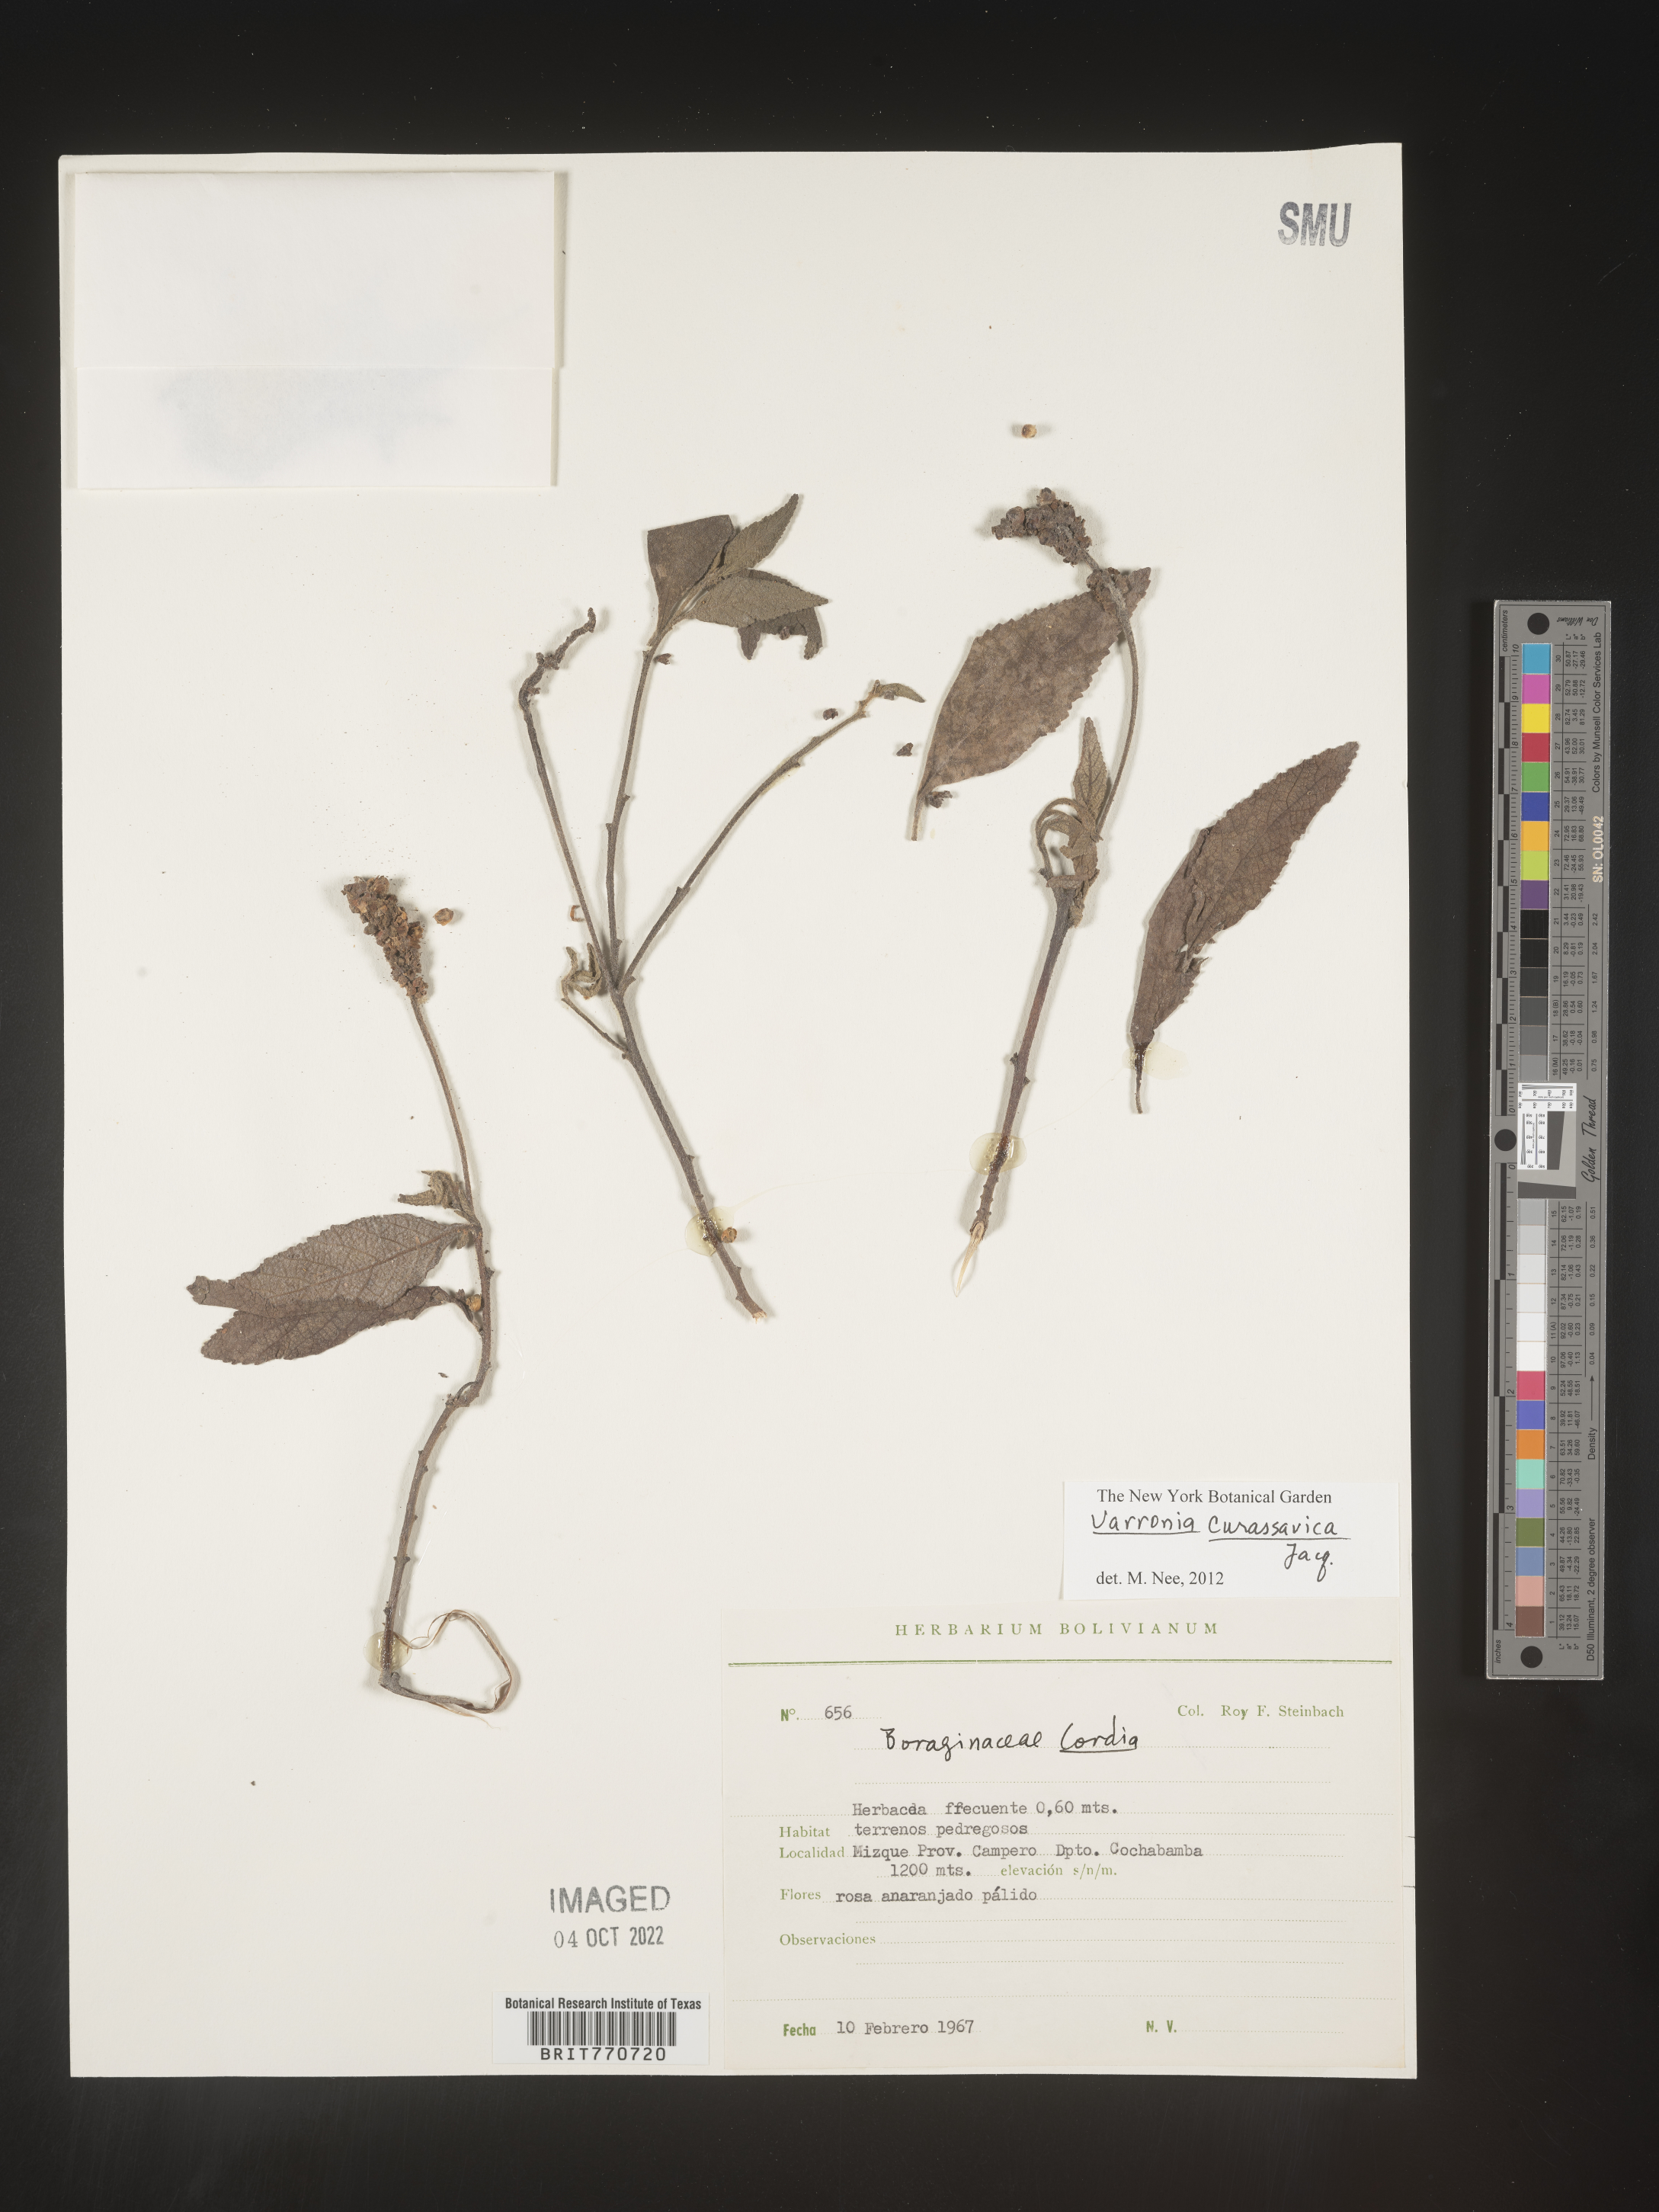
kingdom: Plantae
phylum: Tracheophyta
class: Magnoliopsida
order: Boraginales
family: Cordiaceae
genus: Varronia
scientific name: Varronia
